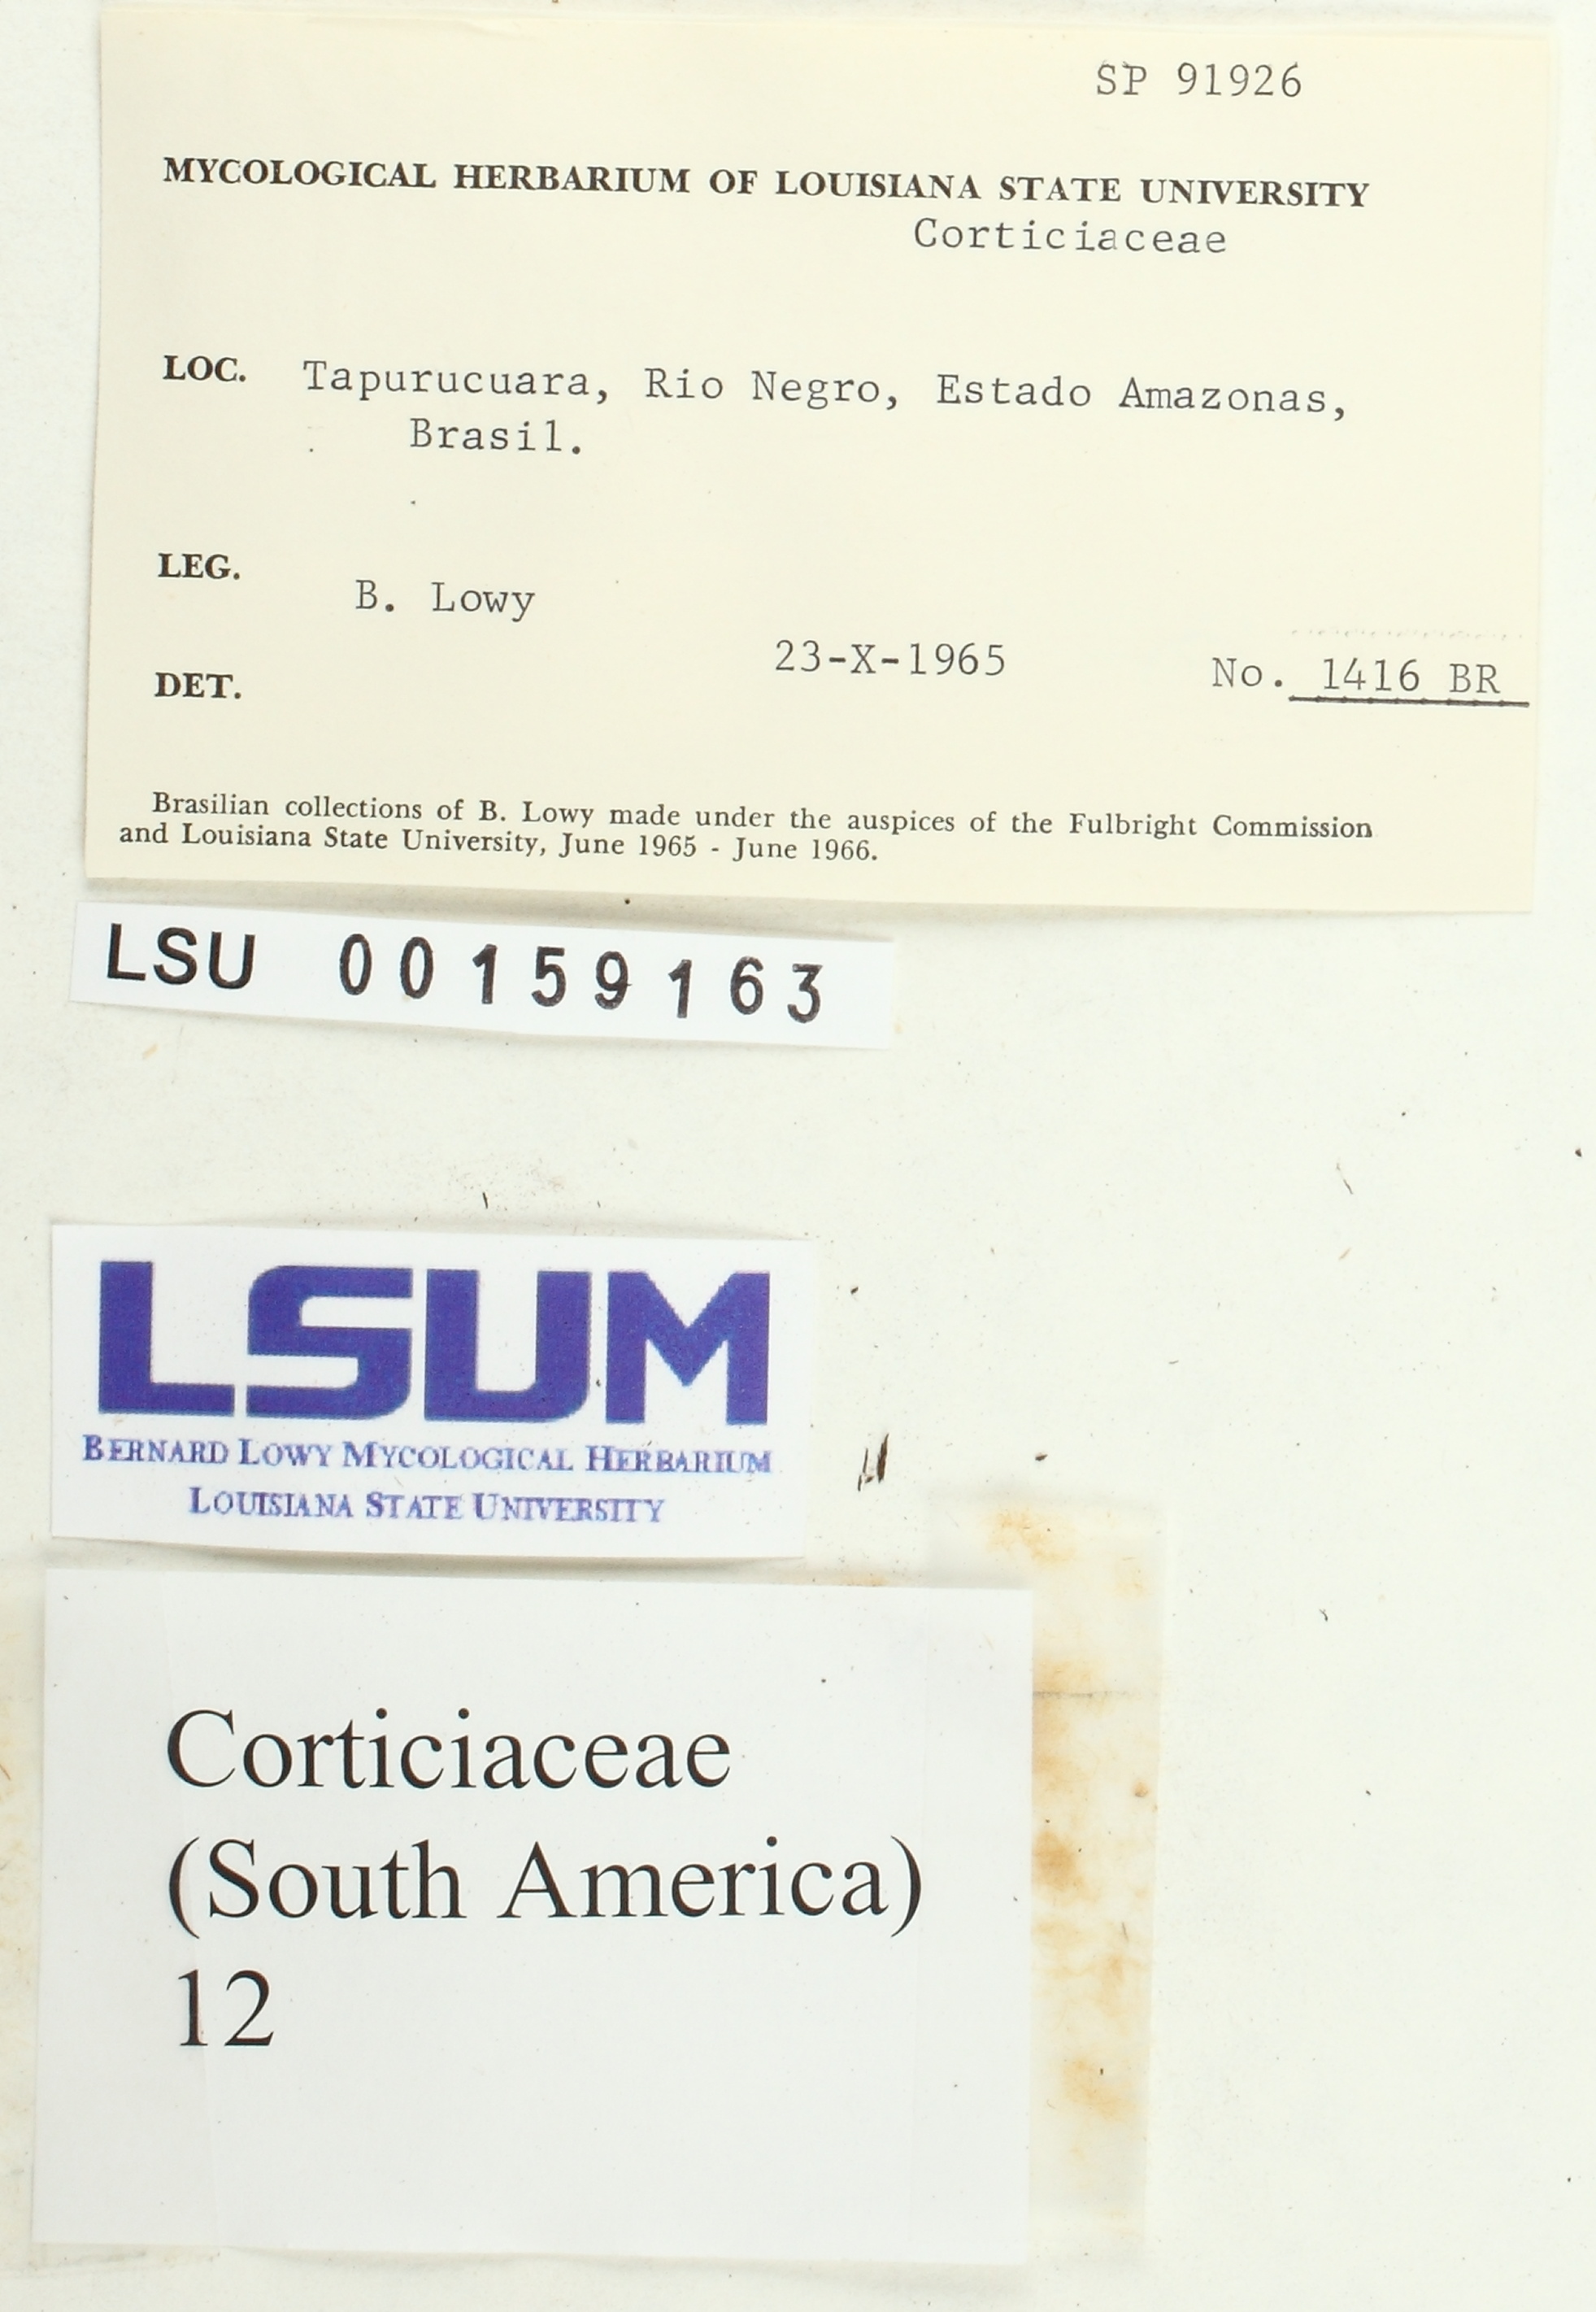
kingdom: Fungi
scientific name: Fungi
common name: Fungi
